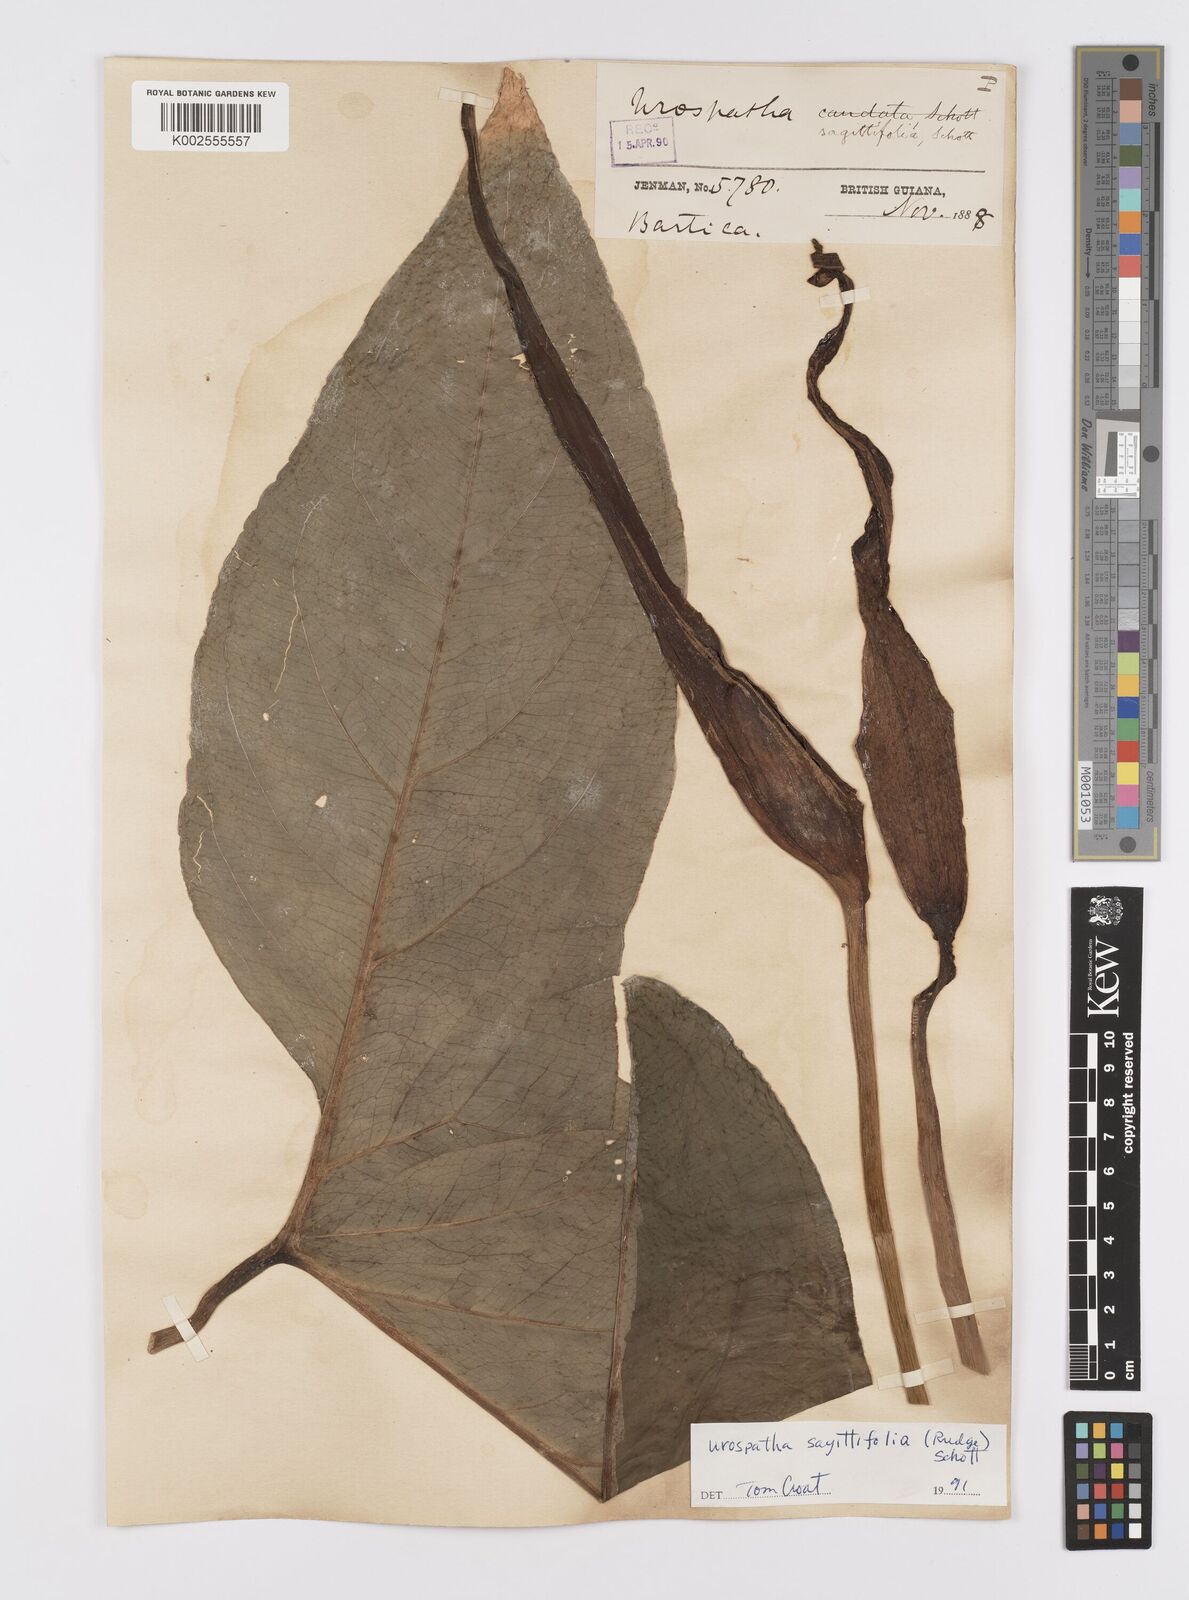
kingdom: Plantae
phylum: Tracheophyta
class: Liliopsida
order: Alismatales
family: Araceae
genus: Urospatha
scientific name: Urospatha sagittifolia
